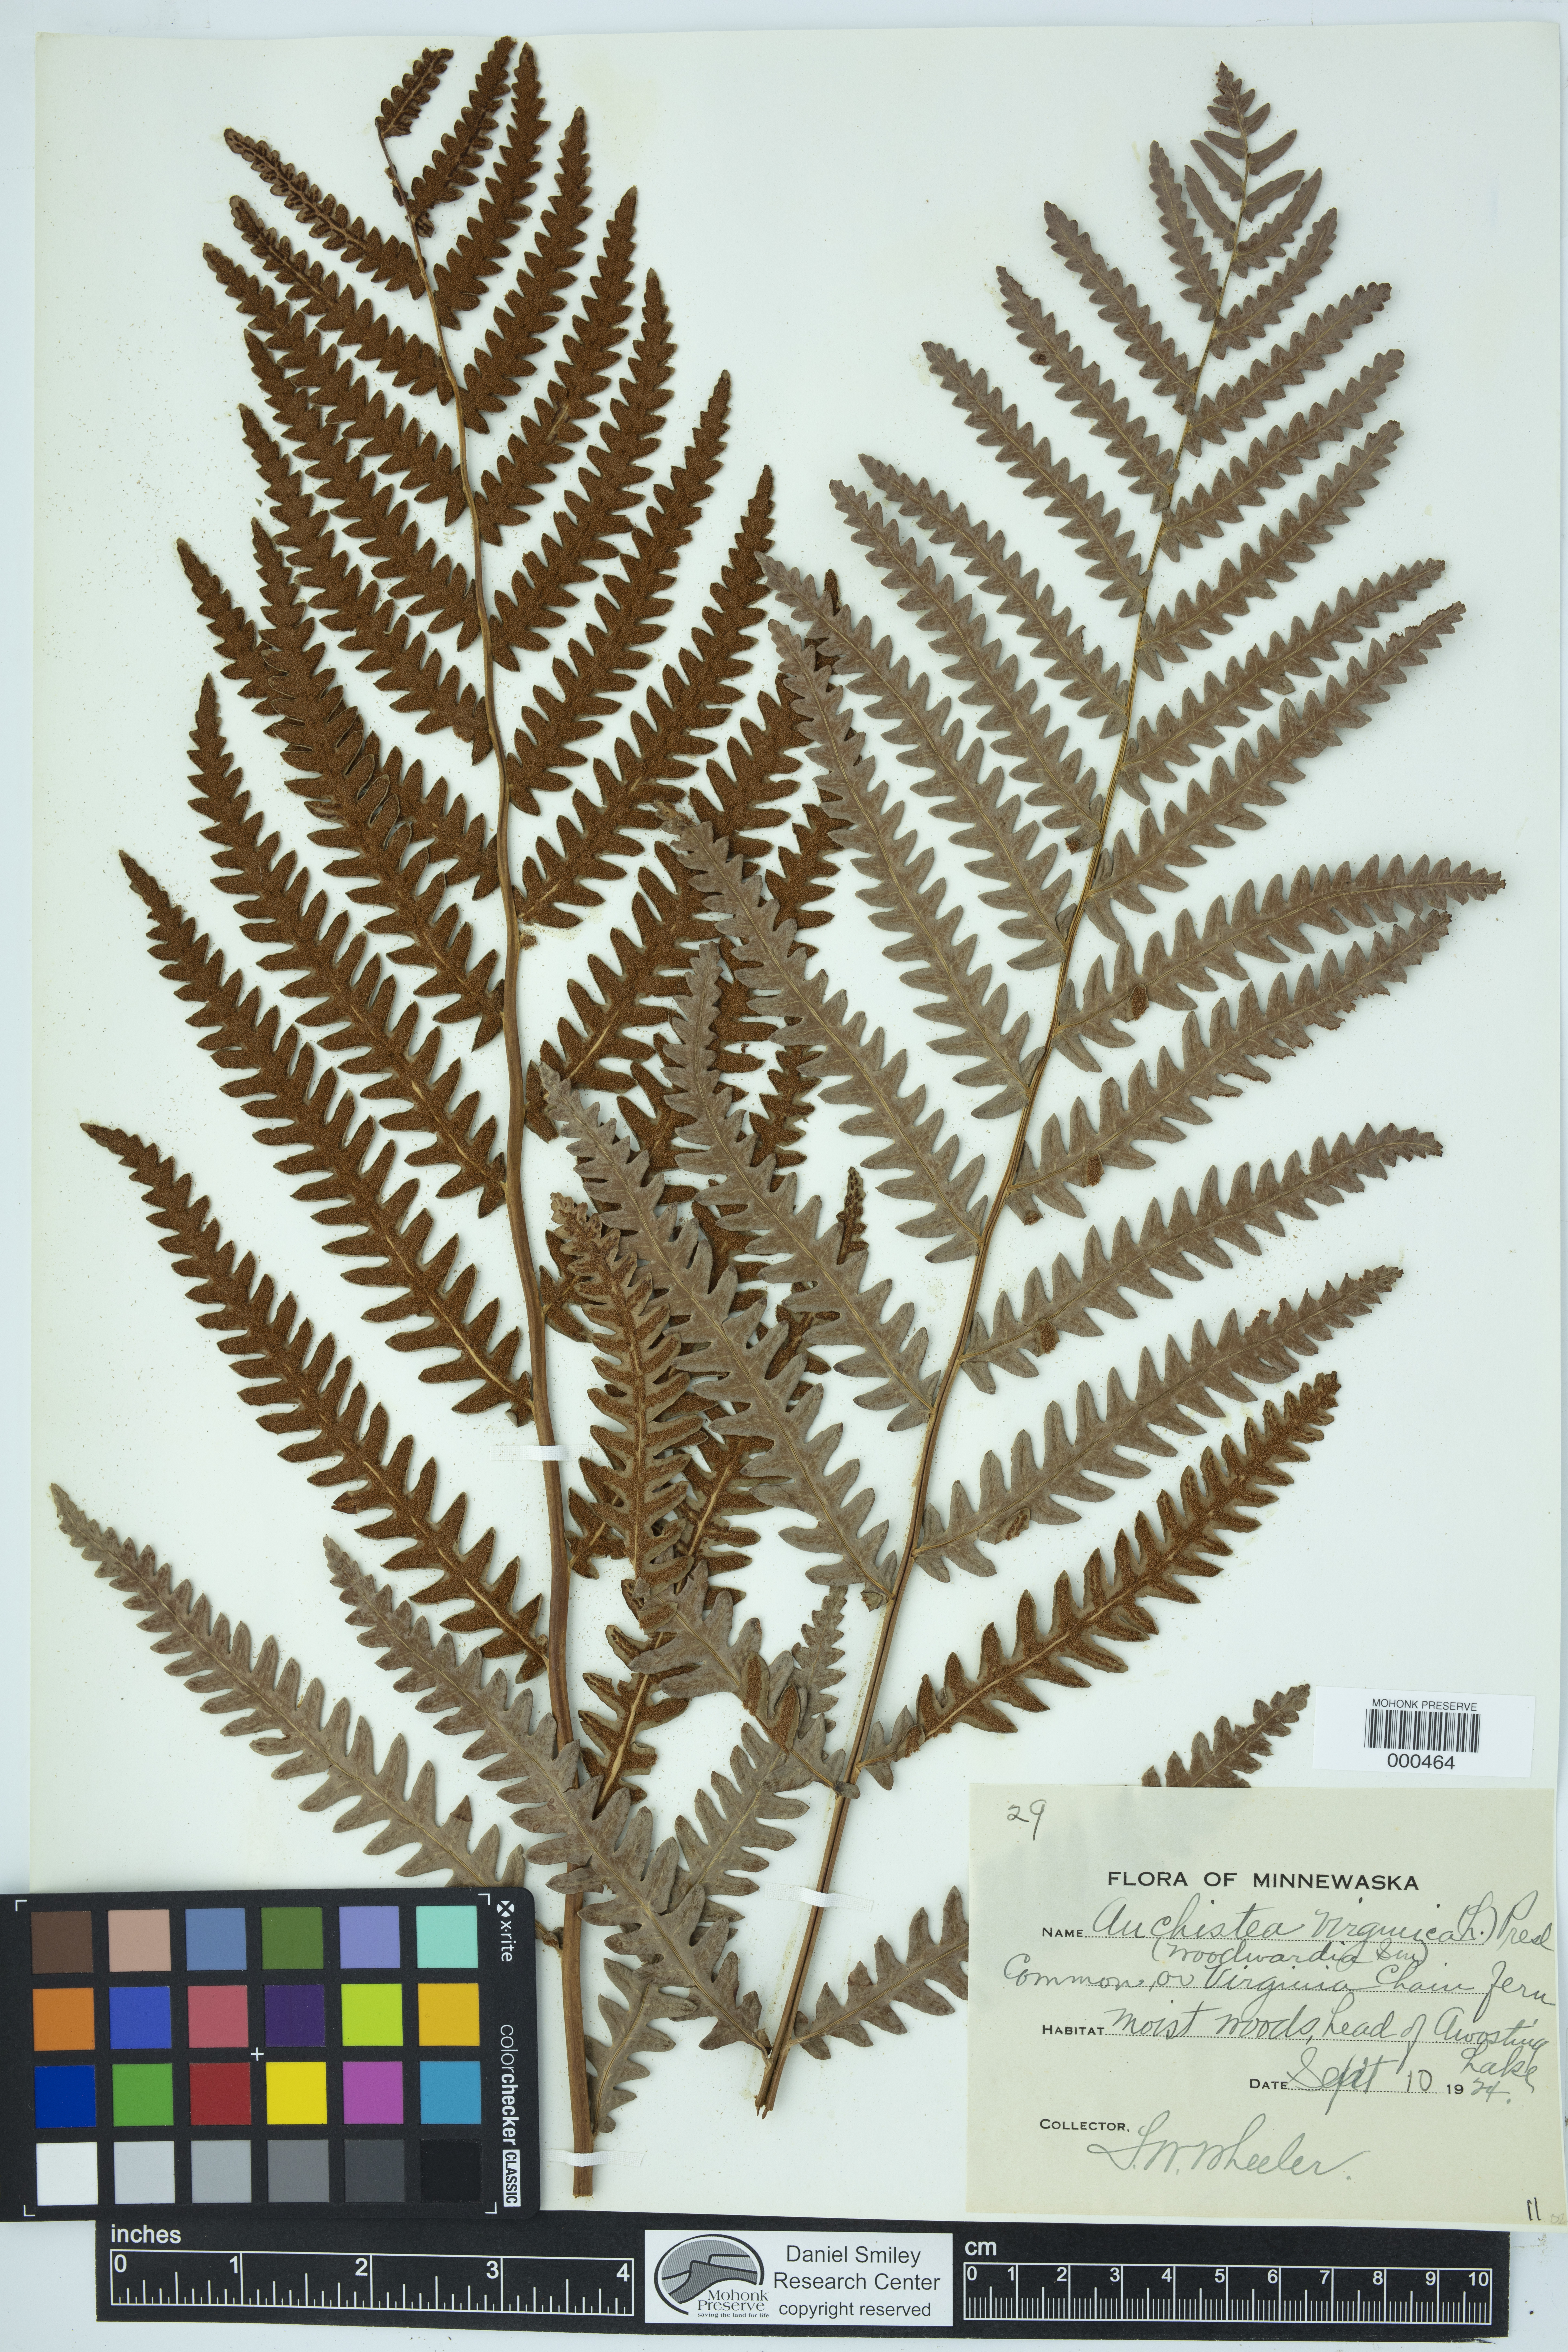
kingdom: Plantae
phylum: Tracheophyta
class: Polypodiopsida
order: Polypodiales
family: Blechnaceae
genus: Anchistea
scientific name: Anchistea virginica
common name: Virginia chain fern
